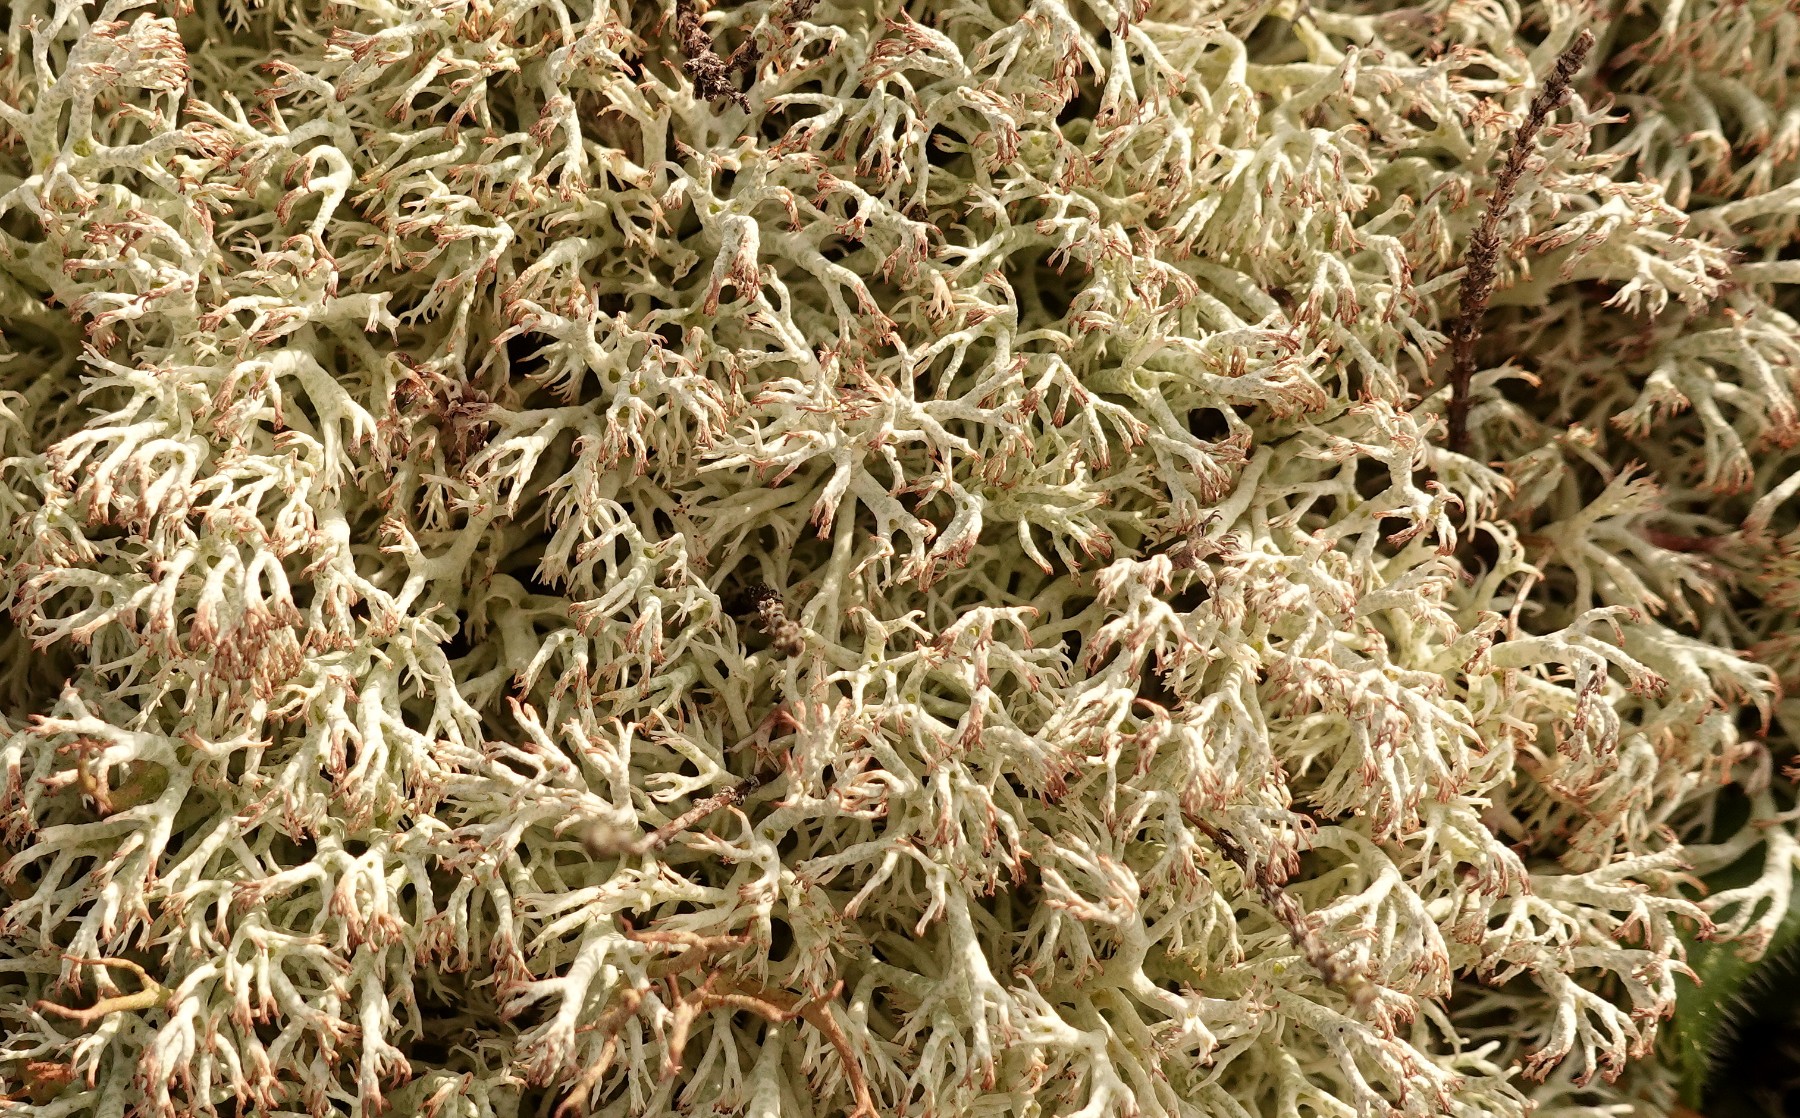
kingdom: Fungi
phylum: Ascomycota
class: Lecanoromycetes
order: Lecanorales
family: Cladoniaceae
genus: Cladonia
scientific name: Cladonia ciliata
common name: spinkel rensdyrlav
